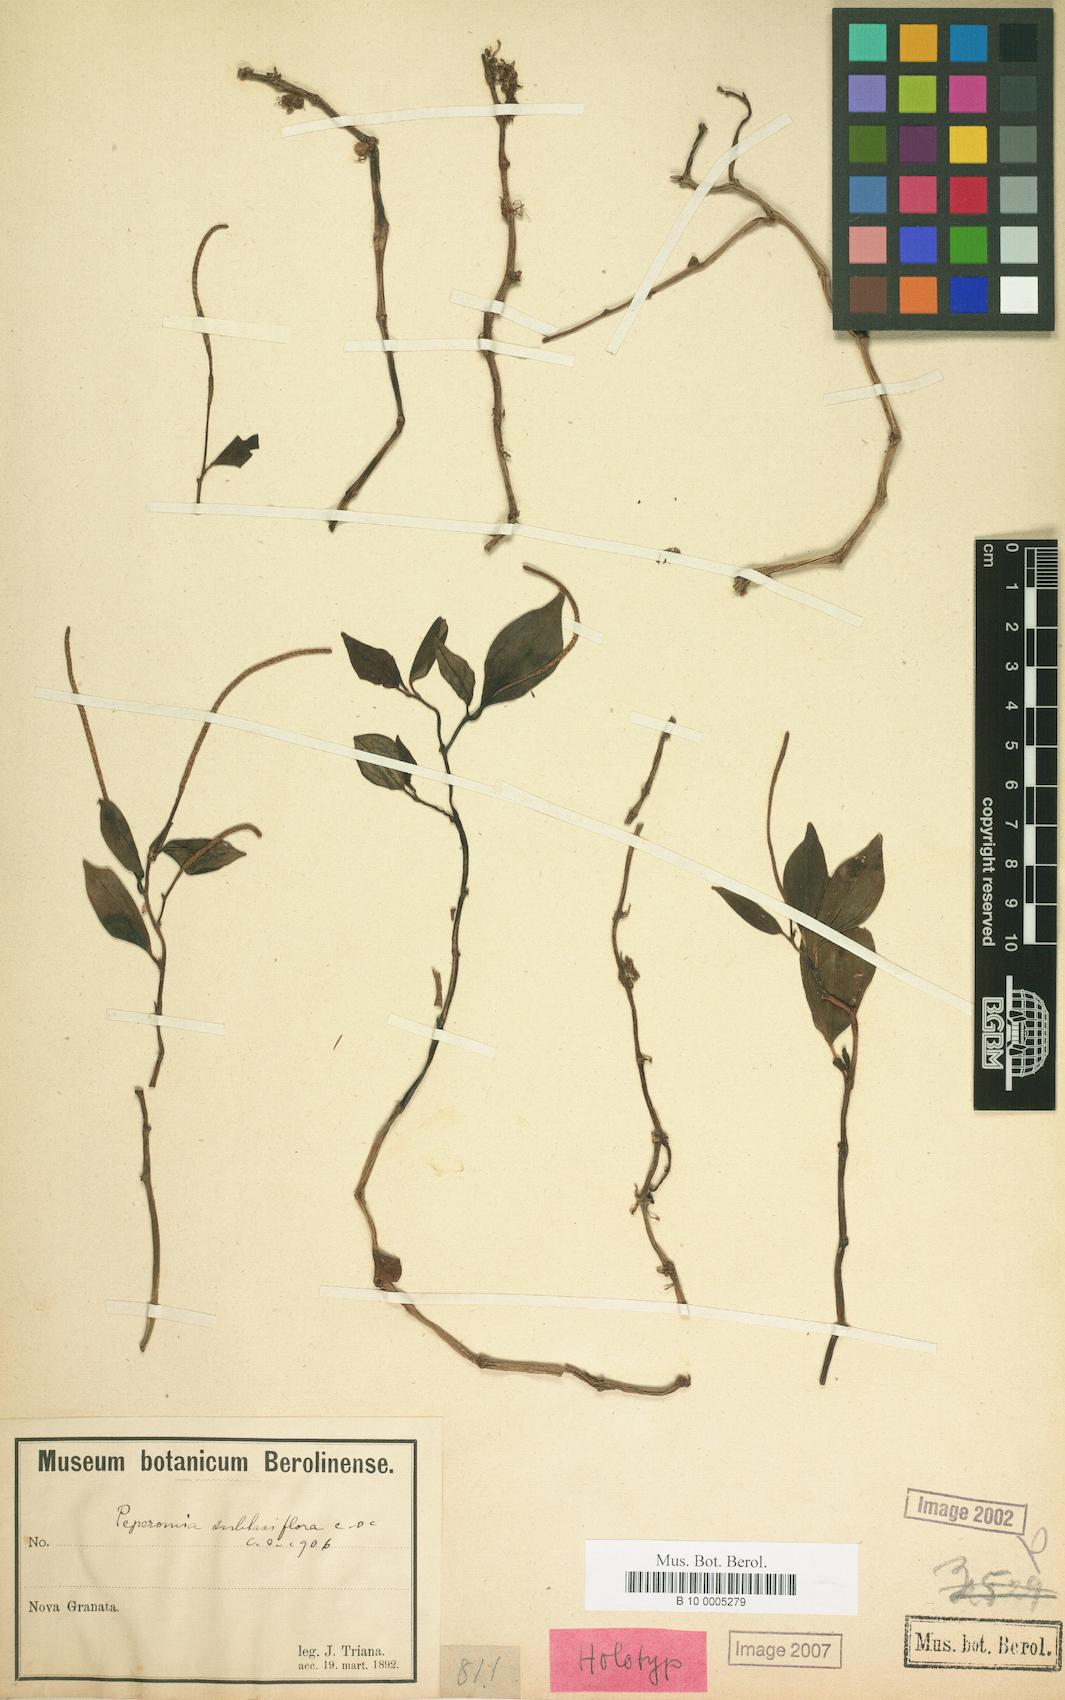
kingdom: Plantae
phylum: Tracheophyta
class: Magnoliopsida
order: Piperales
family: Piperaceae
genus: Peperomia
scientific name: Peperomia sublaxiflora
